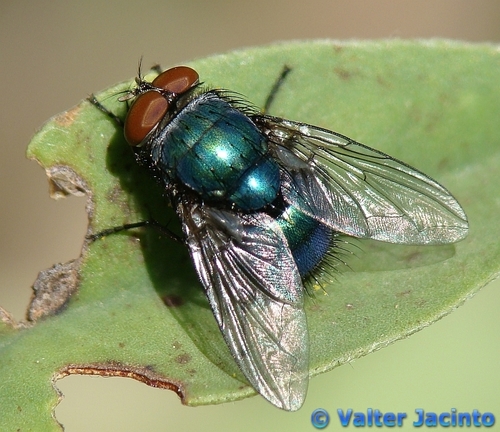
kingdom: Animalia
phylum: Arthropoda
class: Insecta
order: Diptera
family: Calliphoridae
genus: Lucilia
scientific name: Lucilia caesar
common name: Blow fly
